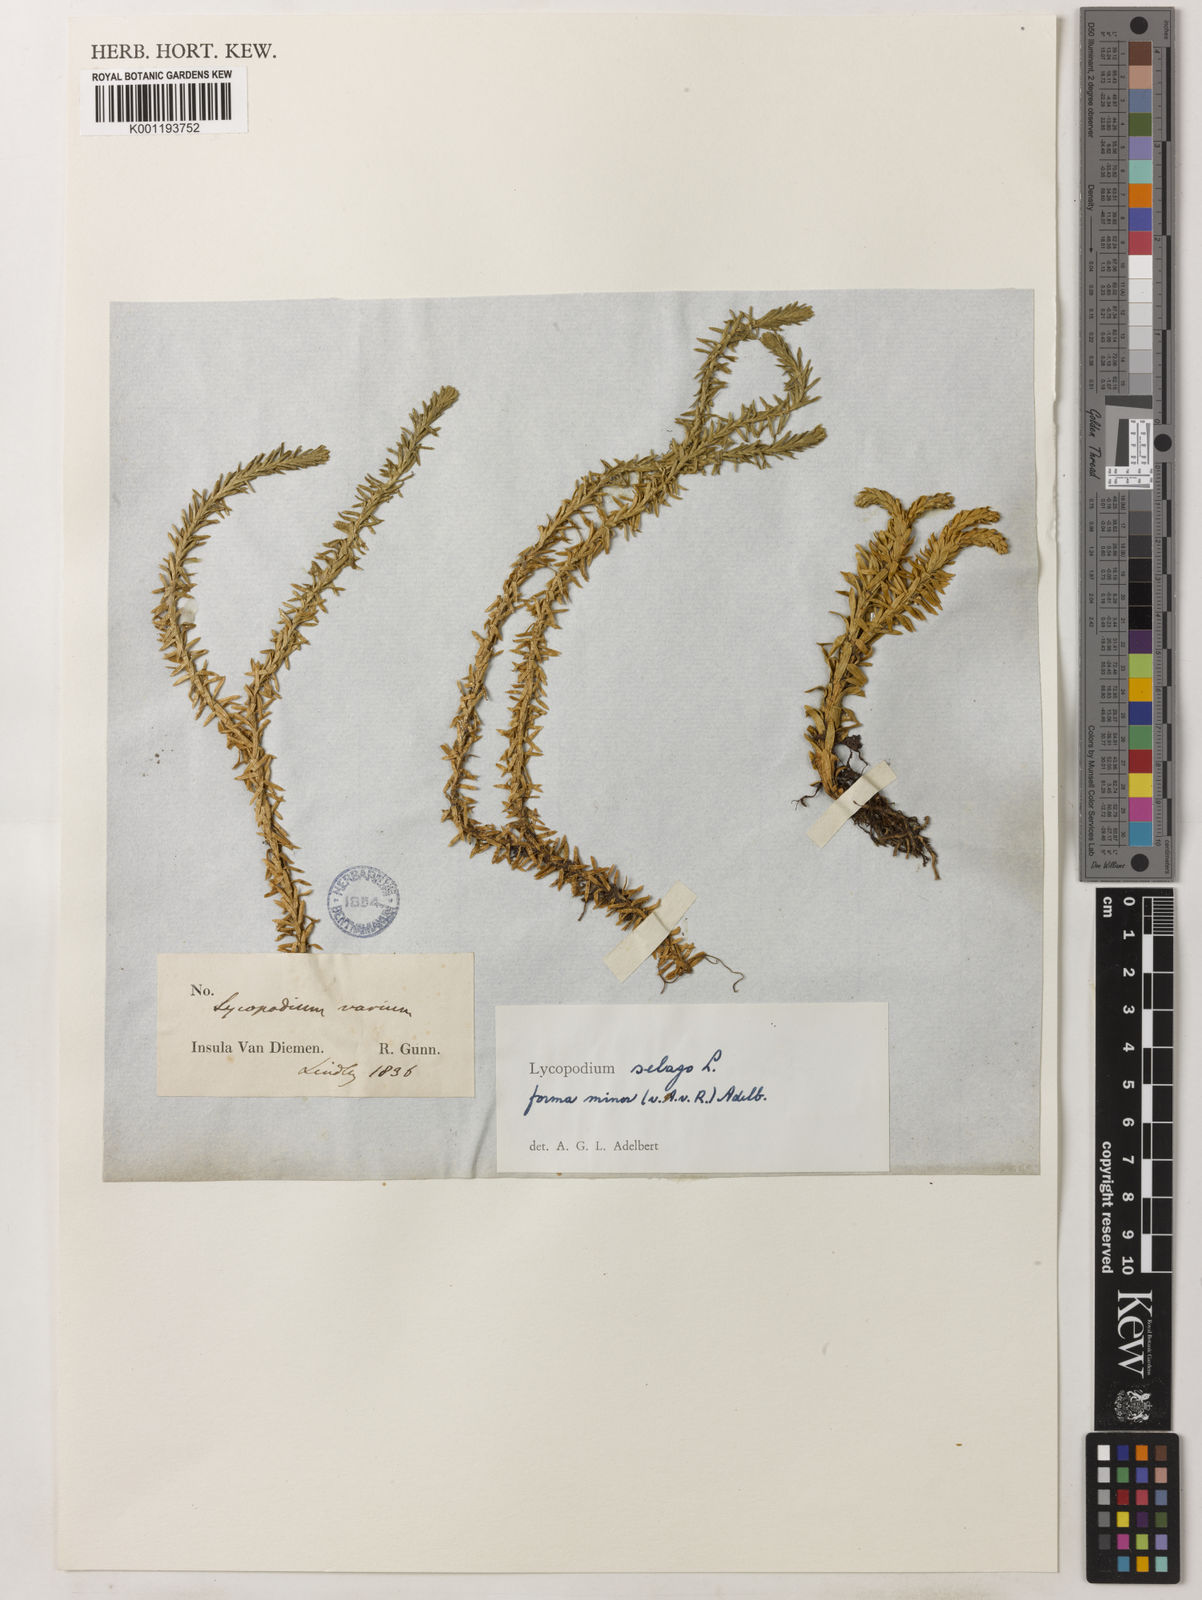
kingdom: Plantae
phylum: Tracheophyta
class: Lycopodiopsida
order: Lycopodiales
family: Lycopodiaceae
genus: Huperzia
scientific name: Huperzia australiana
